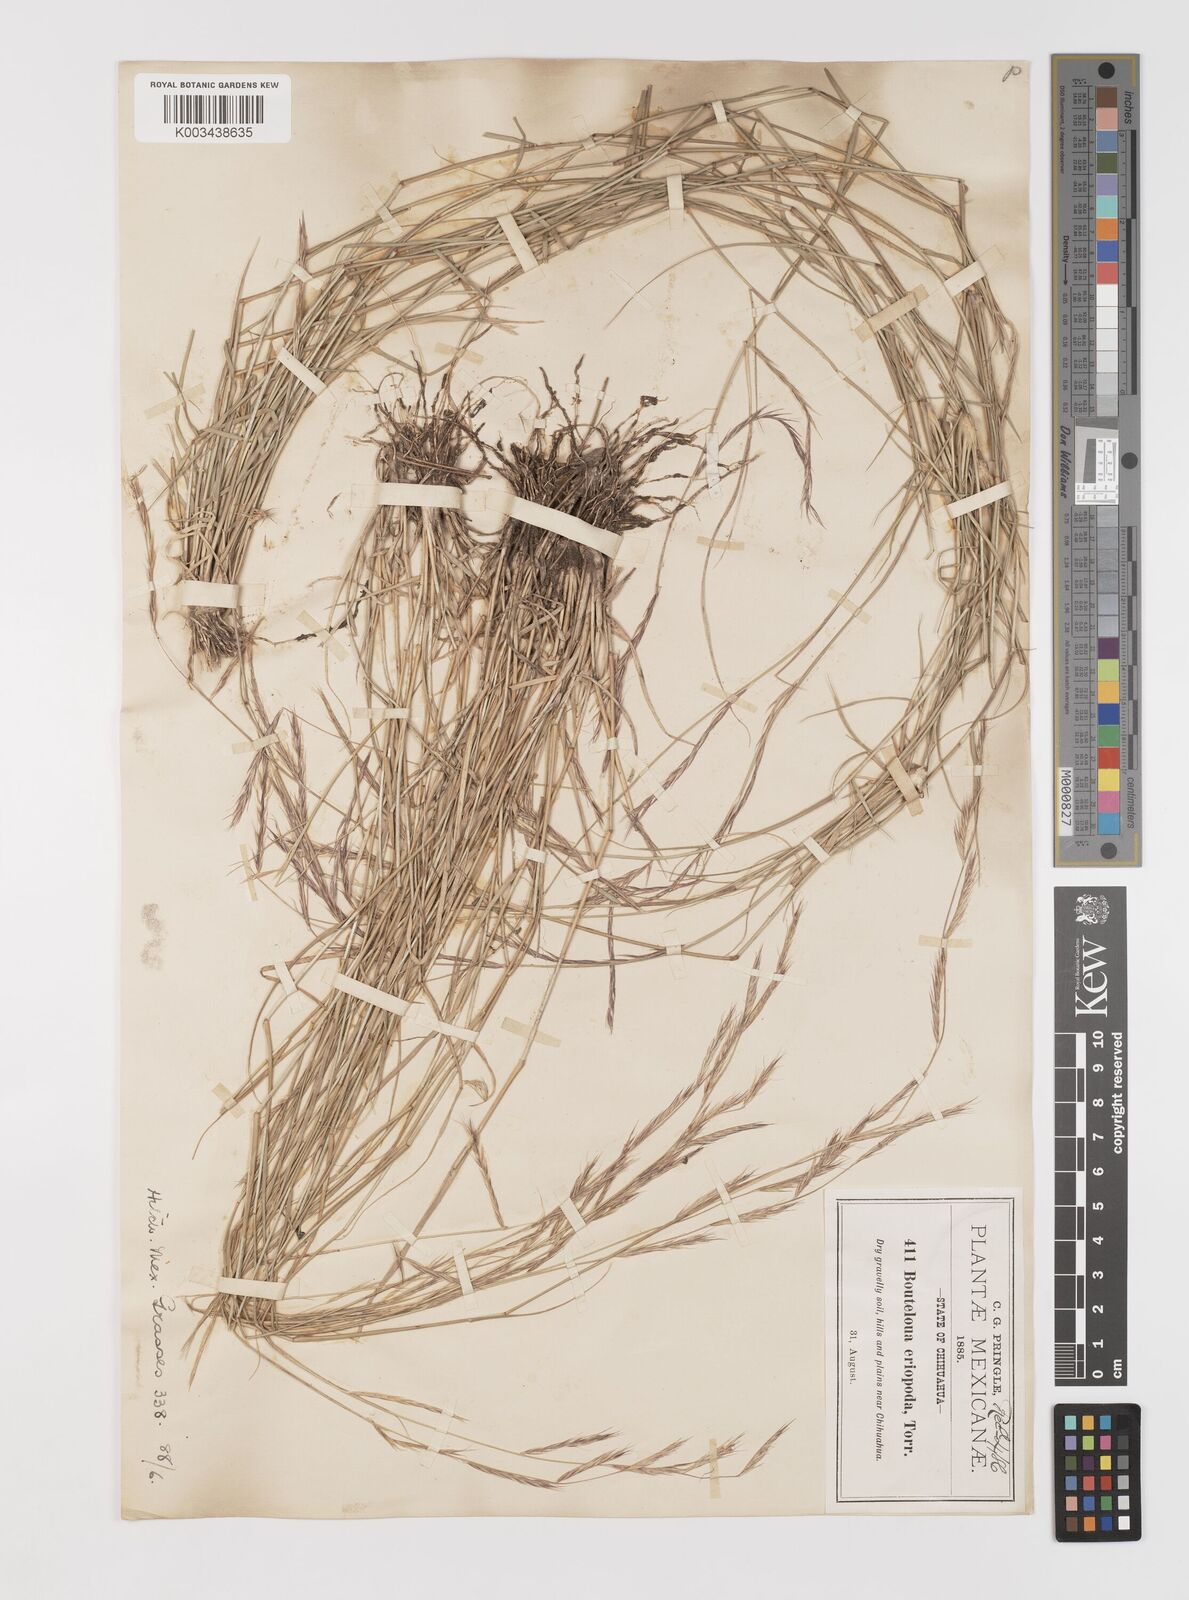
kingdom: Plantae
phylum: Tracheophyta
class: Liliopsida
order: Poales
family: Poaceae
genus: Bouteloua
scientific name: Bouteloua eriopoda
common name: Woolly foot grama
